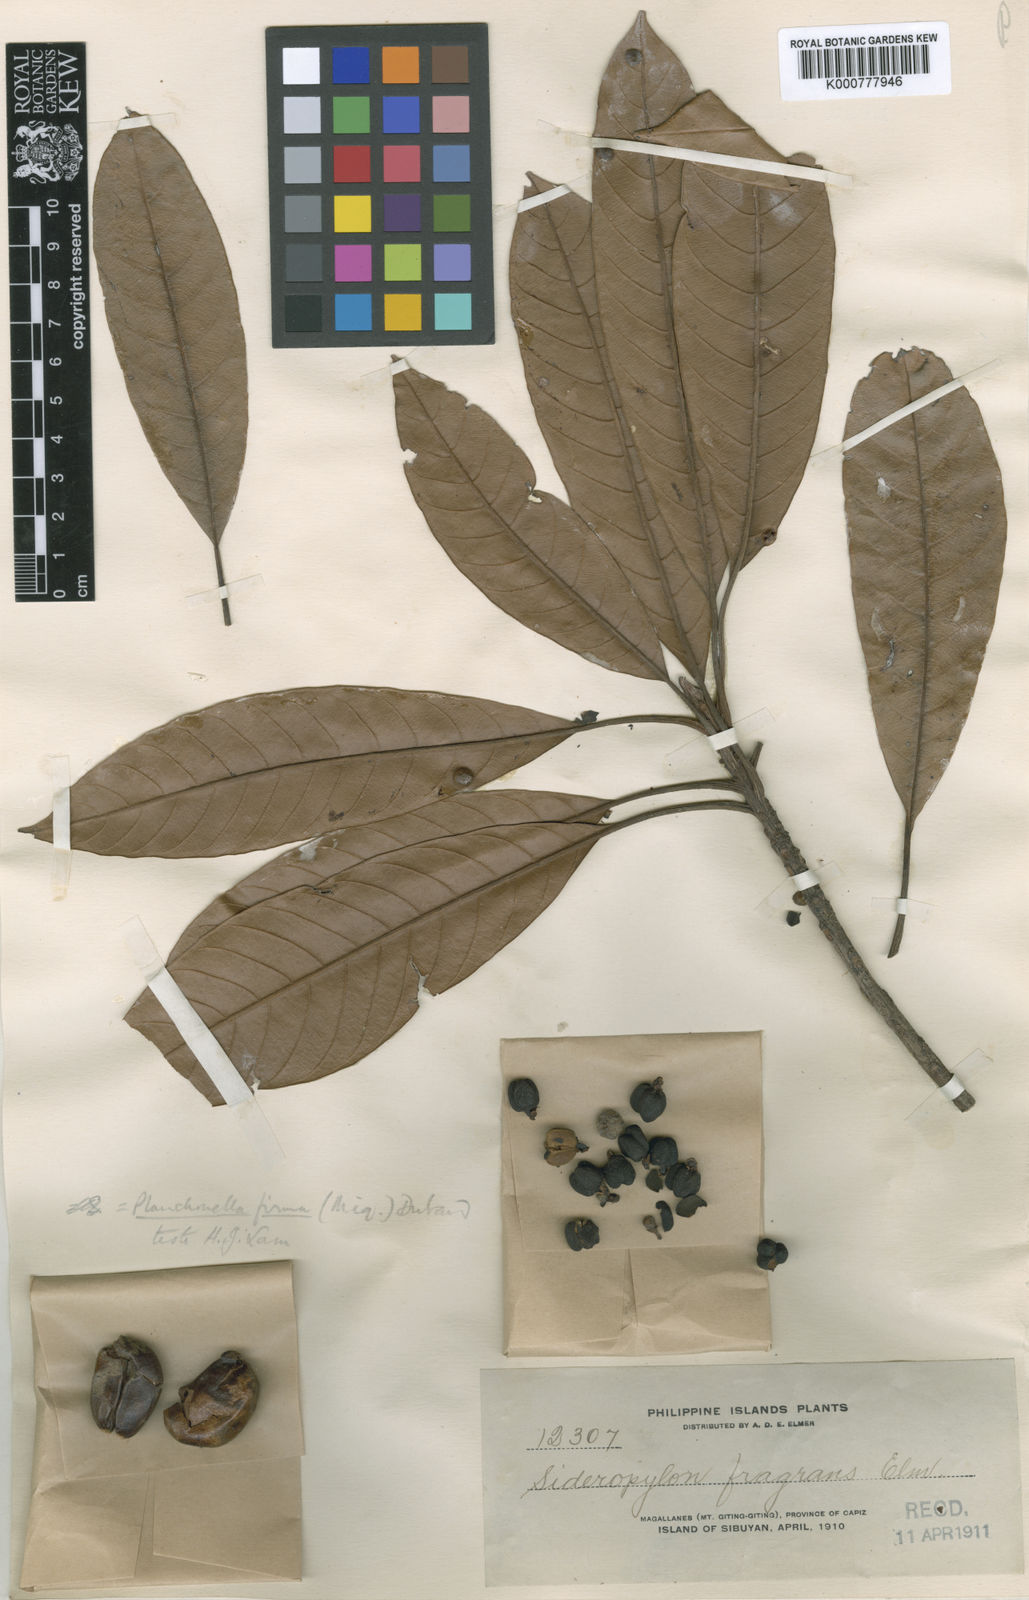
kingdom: Plantae
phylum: Tracheophyta
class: Magnoliopsida
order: Ericales
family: Sapotaceae
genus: Pleioluma
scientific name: Pleioluma firma
